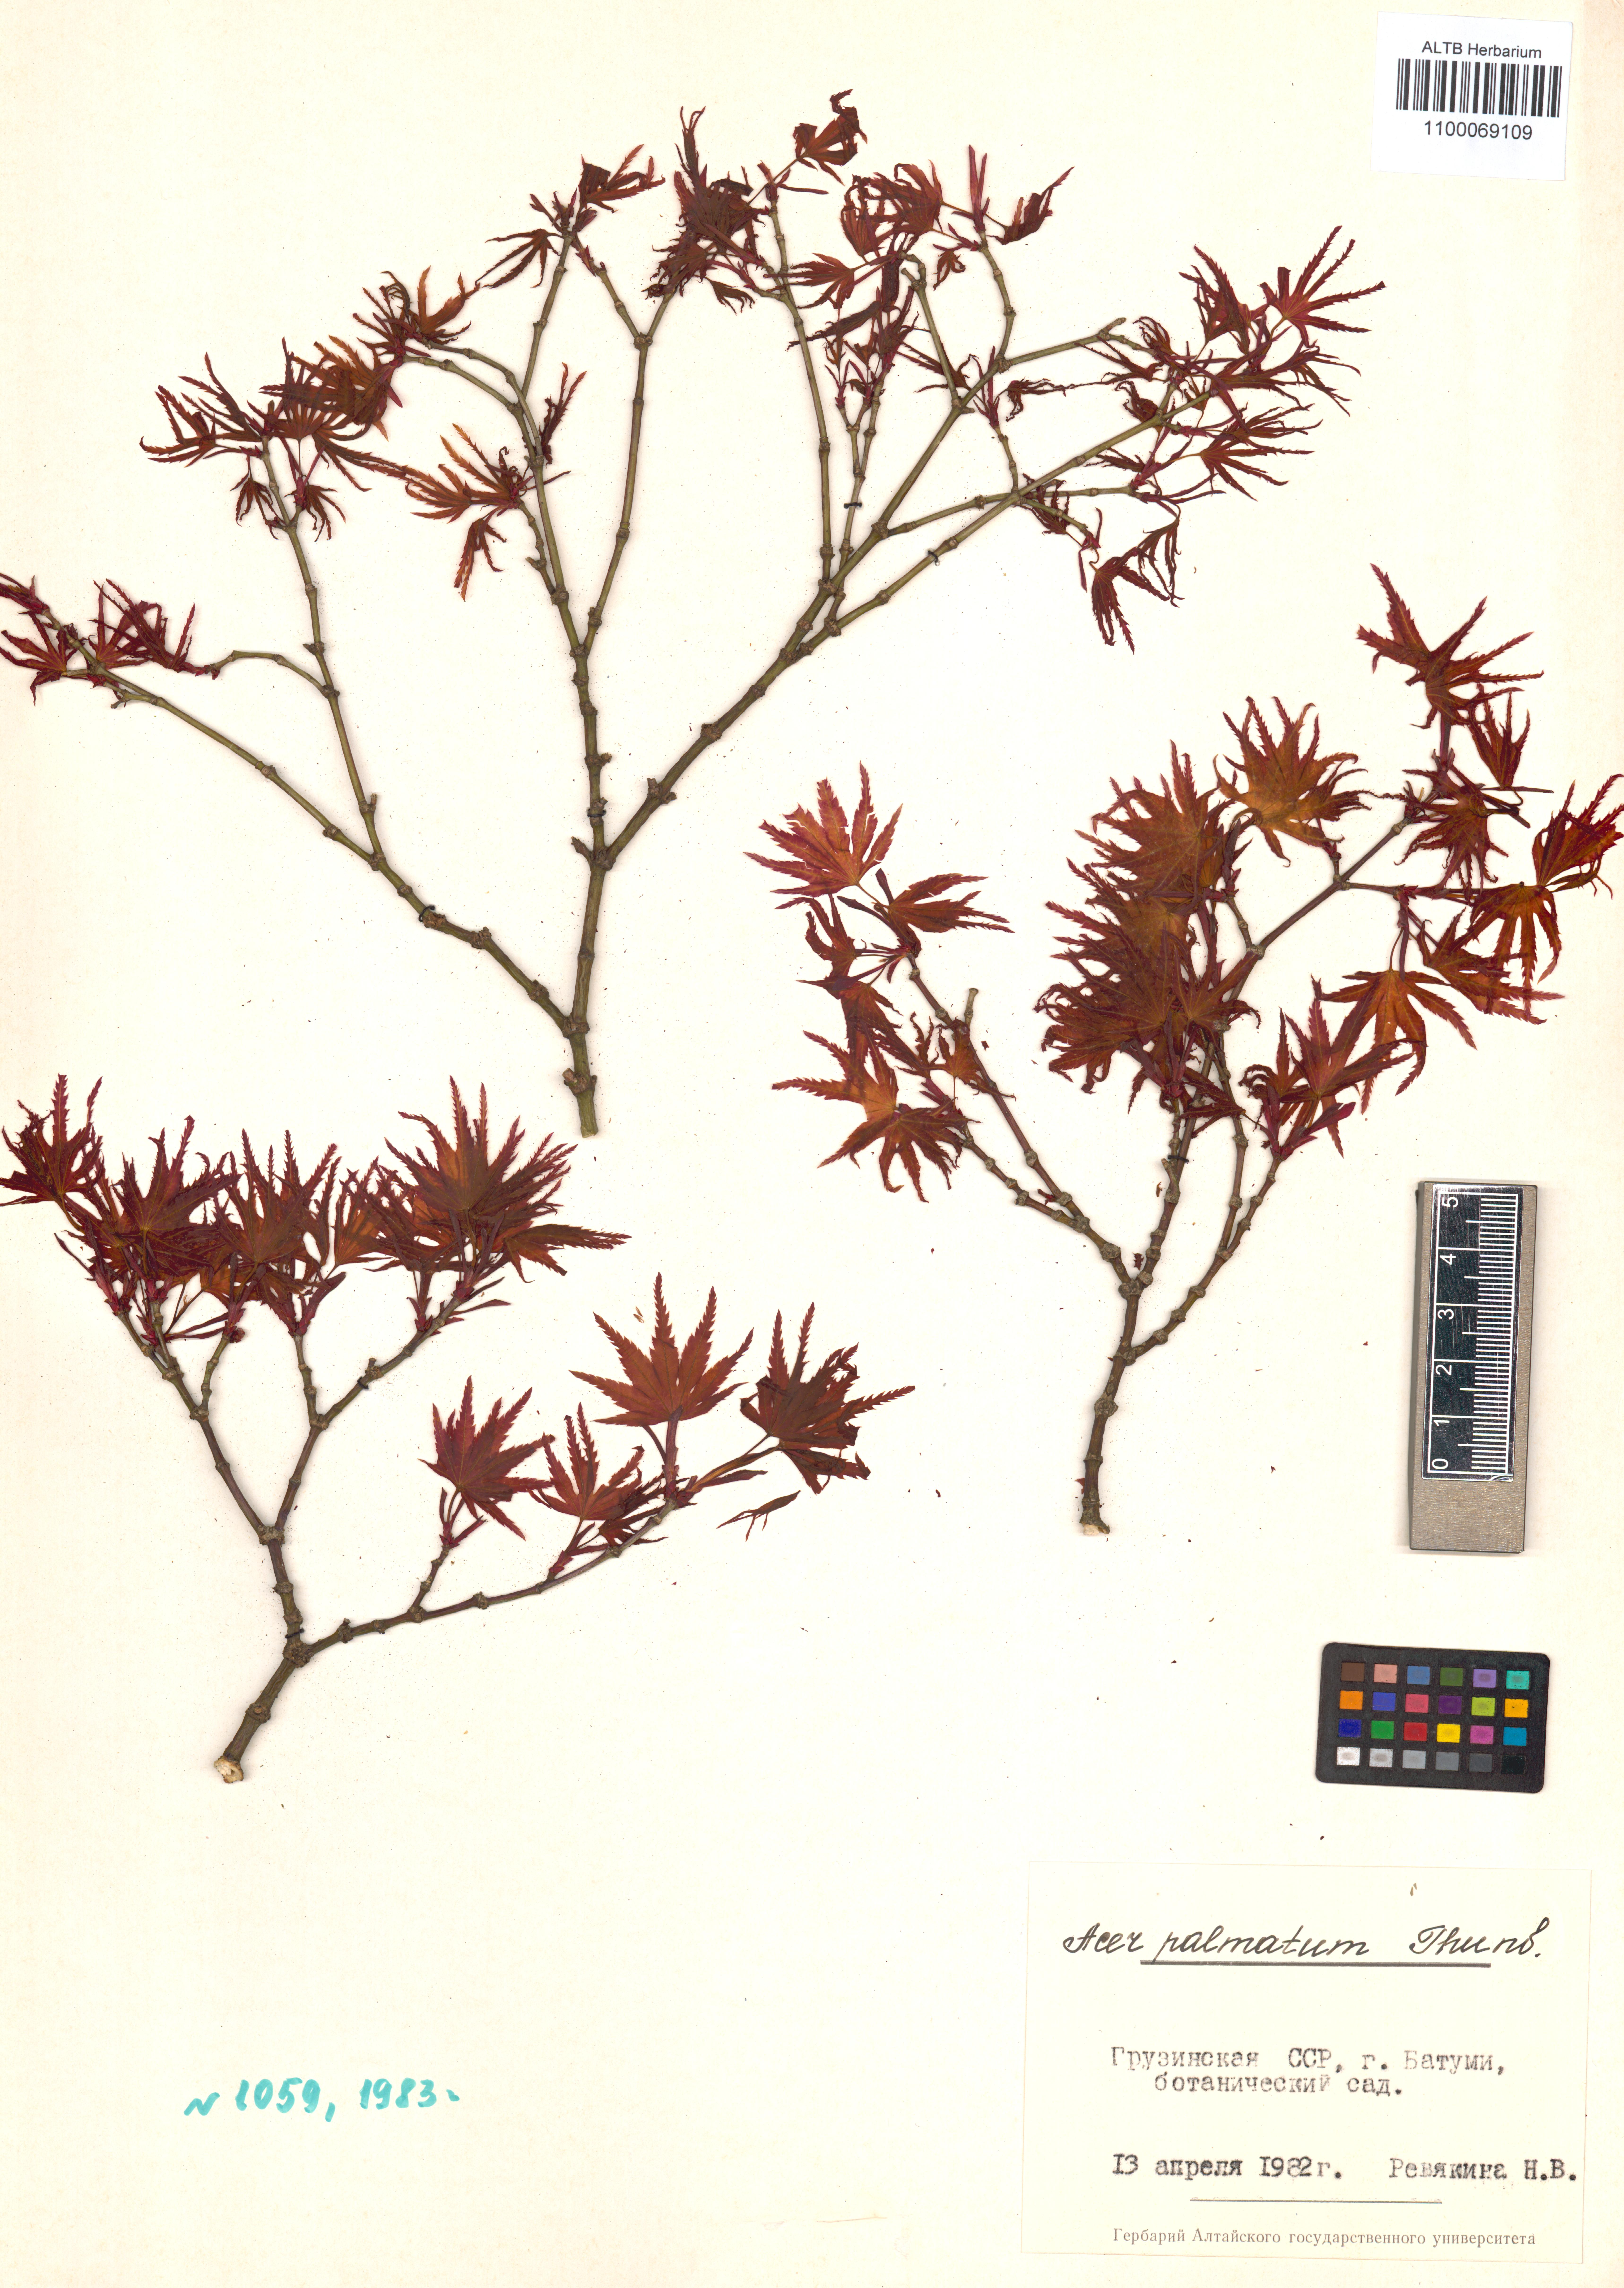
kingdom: Plantae
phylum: Tracheophyta
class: Magnoliopsida
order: Sapindales
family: Sapindaceae
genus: Acer
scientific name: Acer palmatum
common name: Japanese maple
